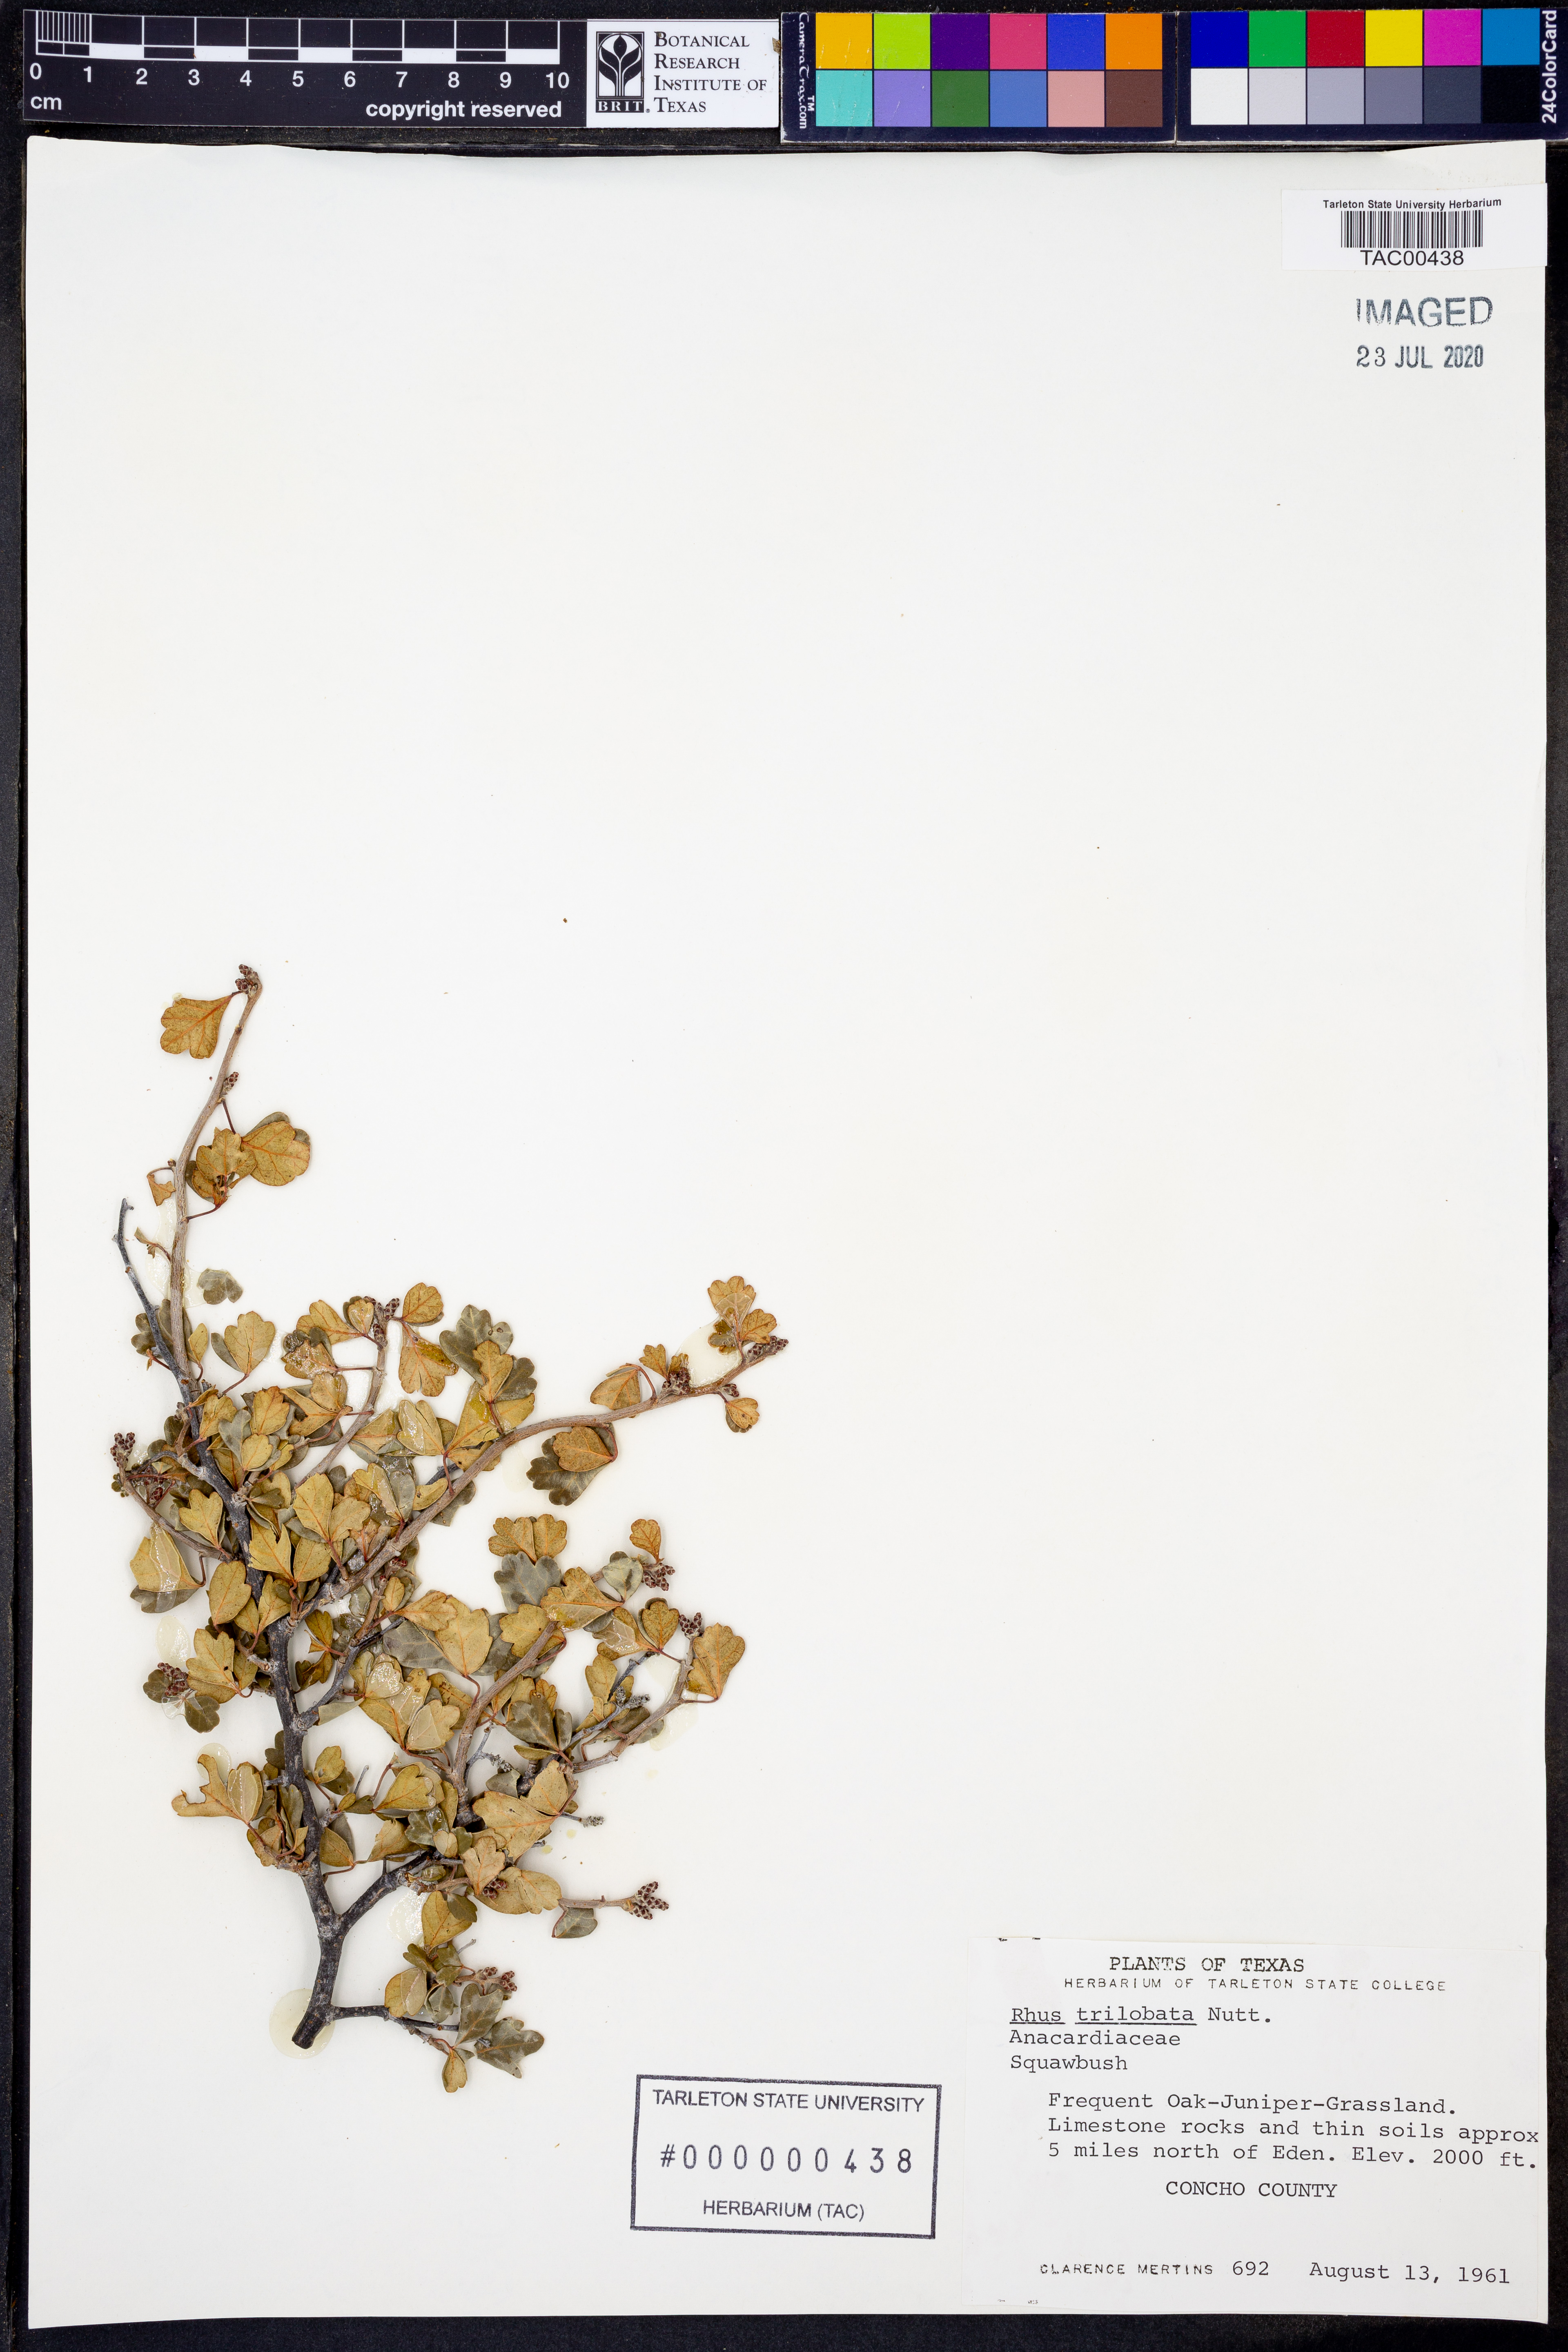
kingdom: Plantae
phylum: Tracheophyta
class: Magnoliopsida
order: Sapindales
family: Anacardiaceae
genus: Rhus
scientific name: Rhus trilobata
